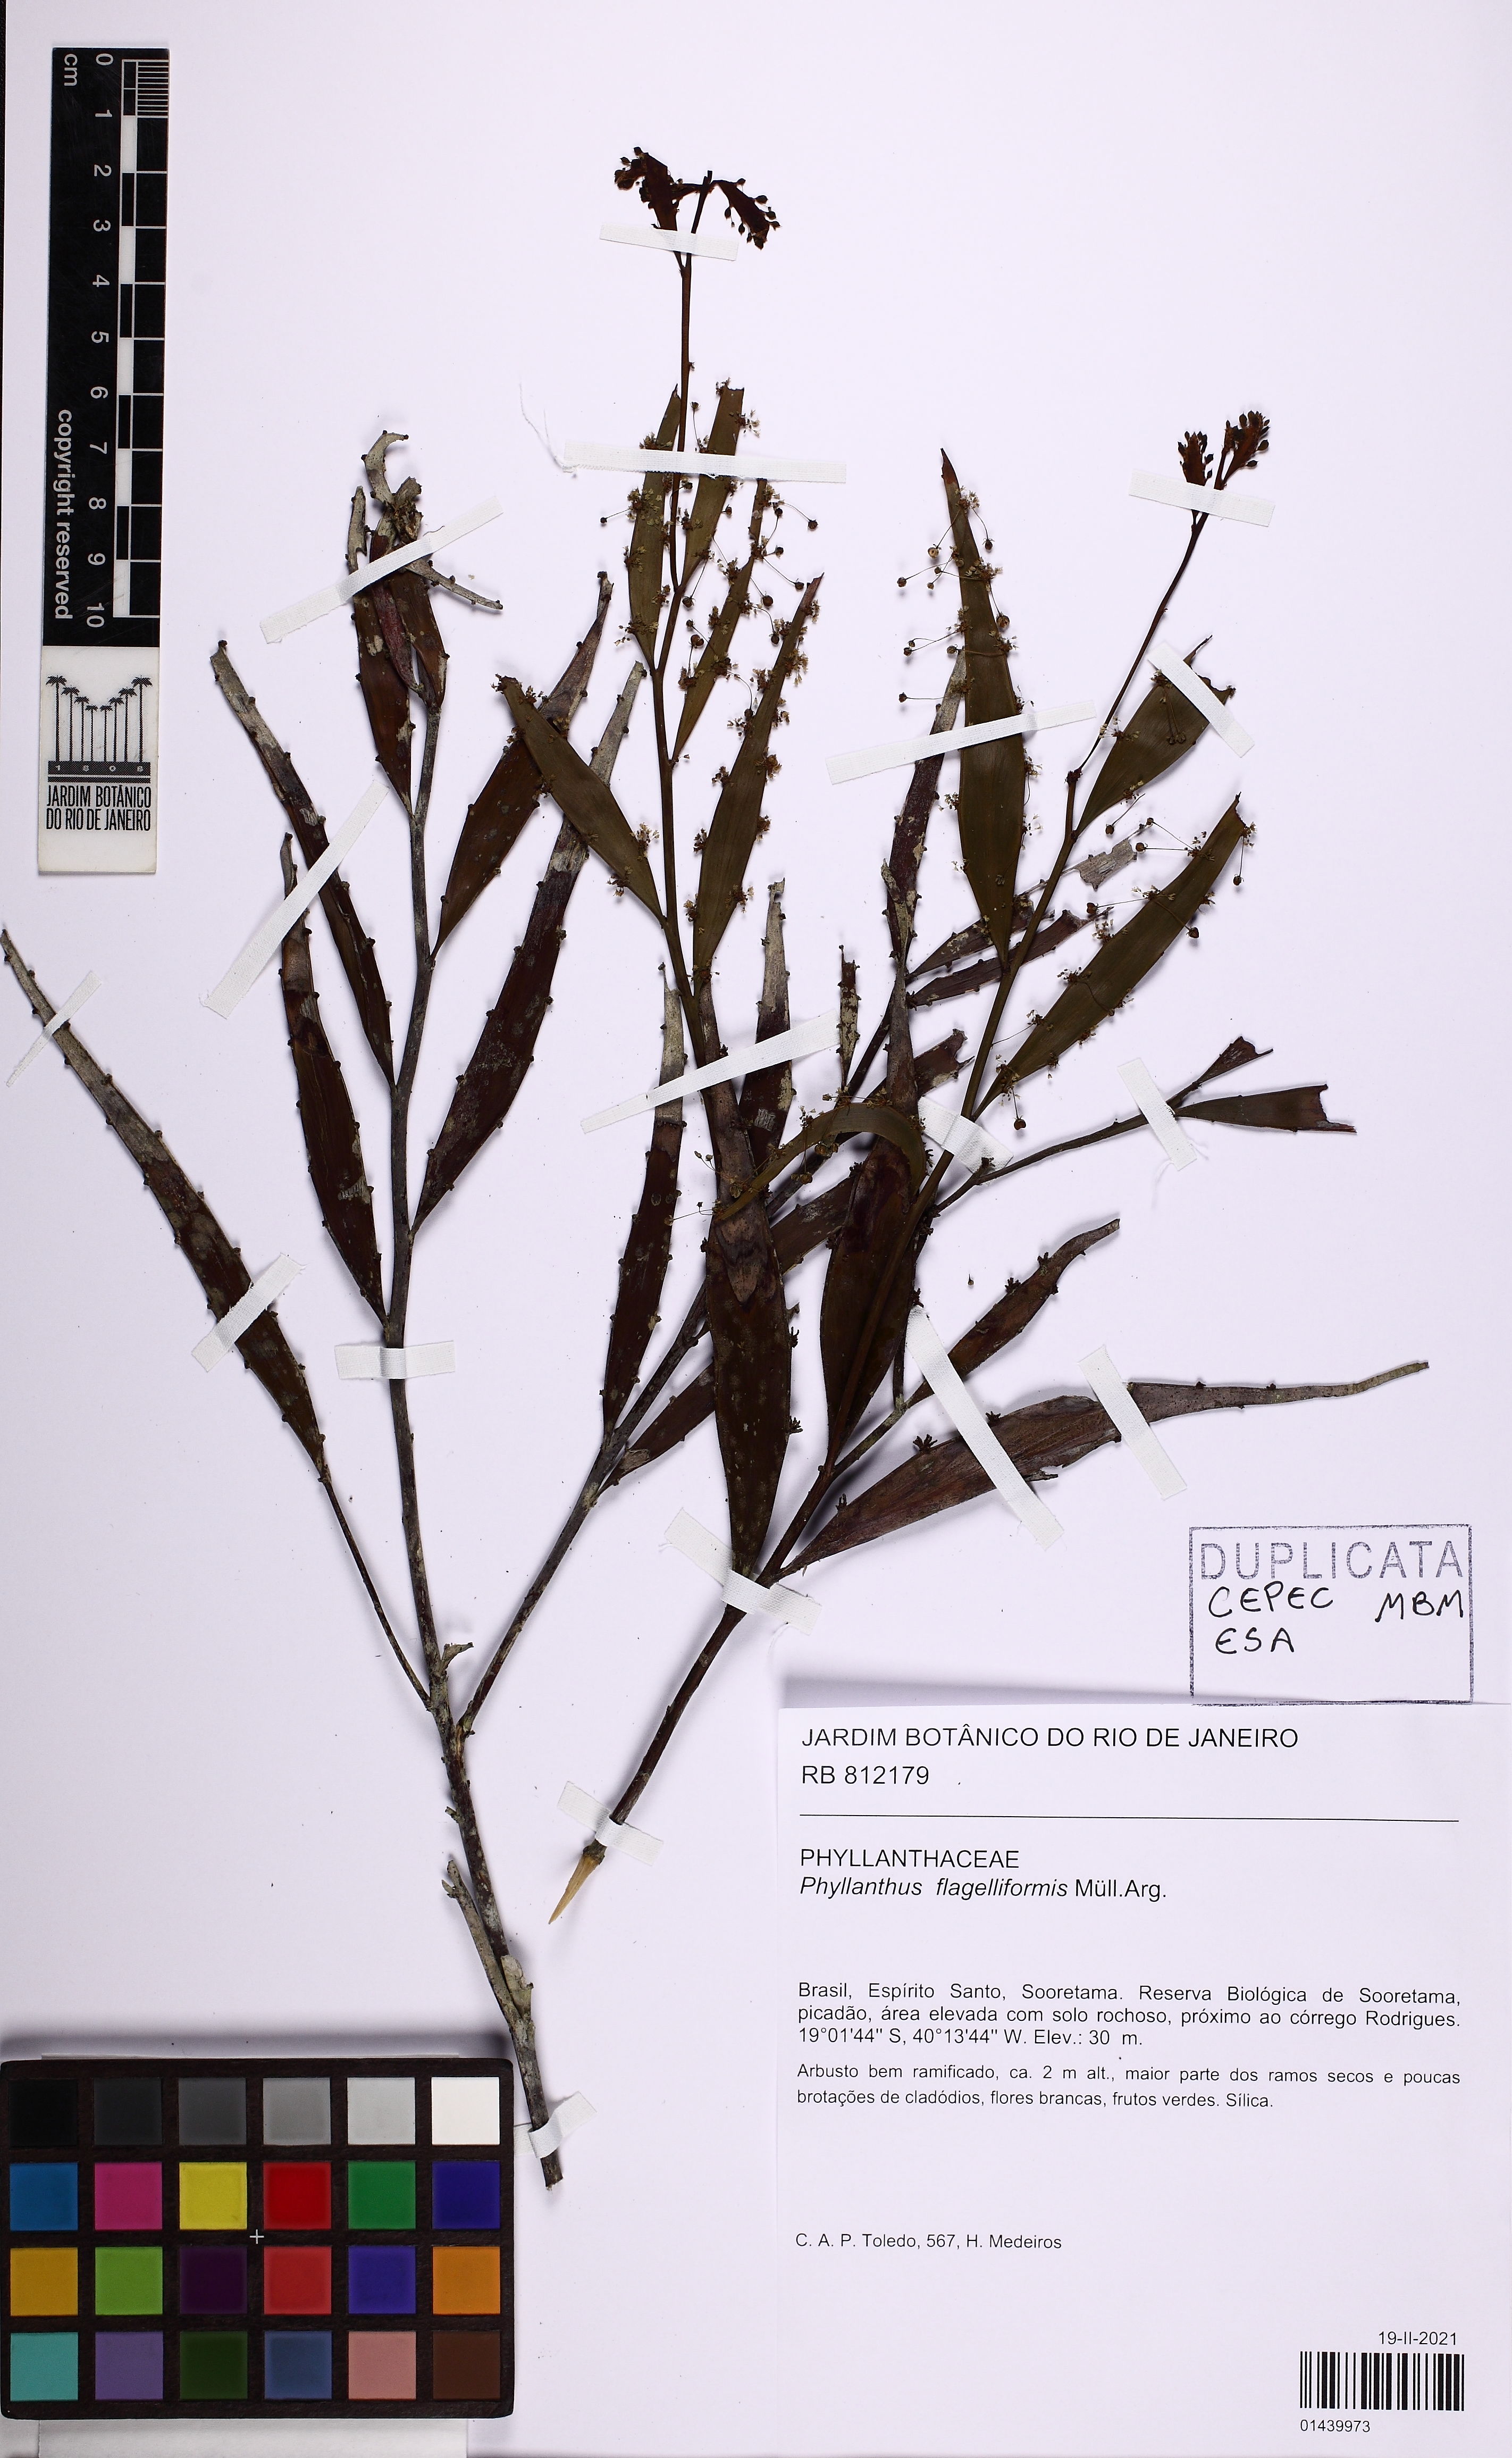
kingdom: Plantae
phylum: Tracheophyta
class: Magnoliopsida
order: Malpighiales
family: Phyllanthaceae
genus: Phyllanthus
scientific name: Phyllanthus eurisladro
